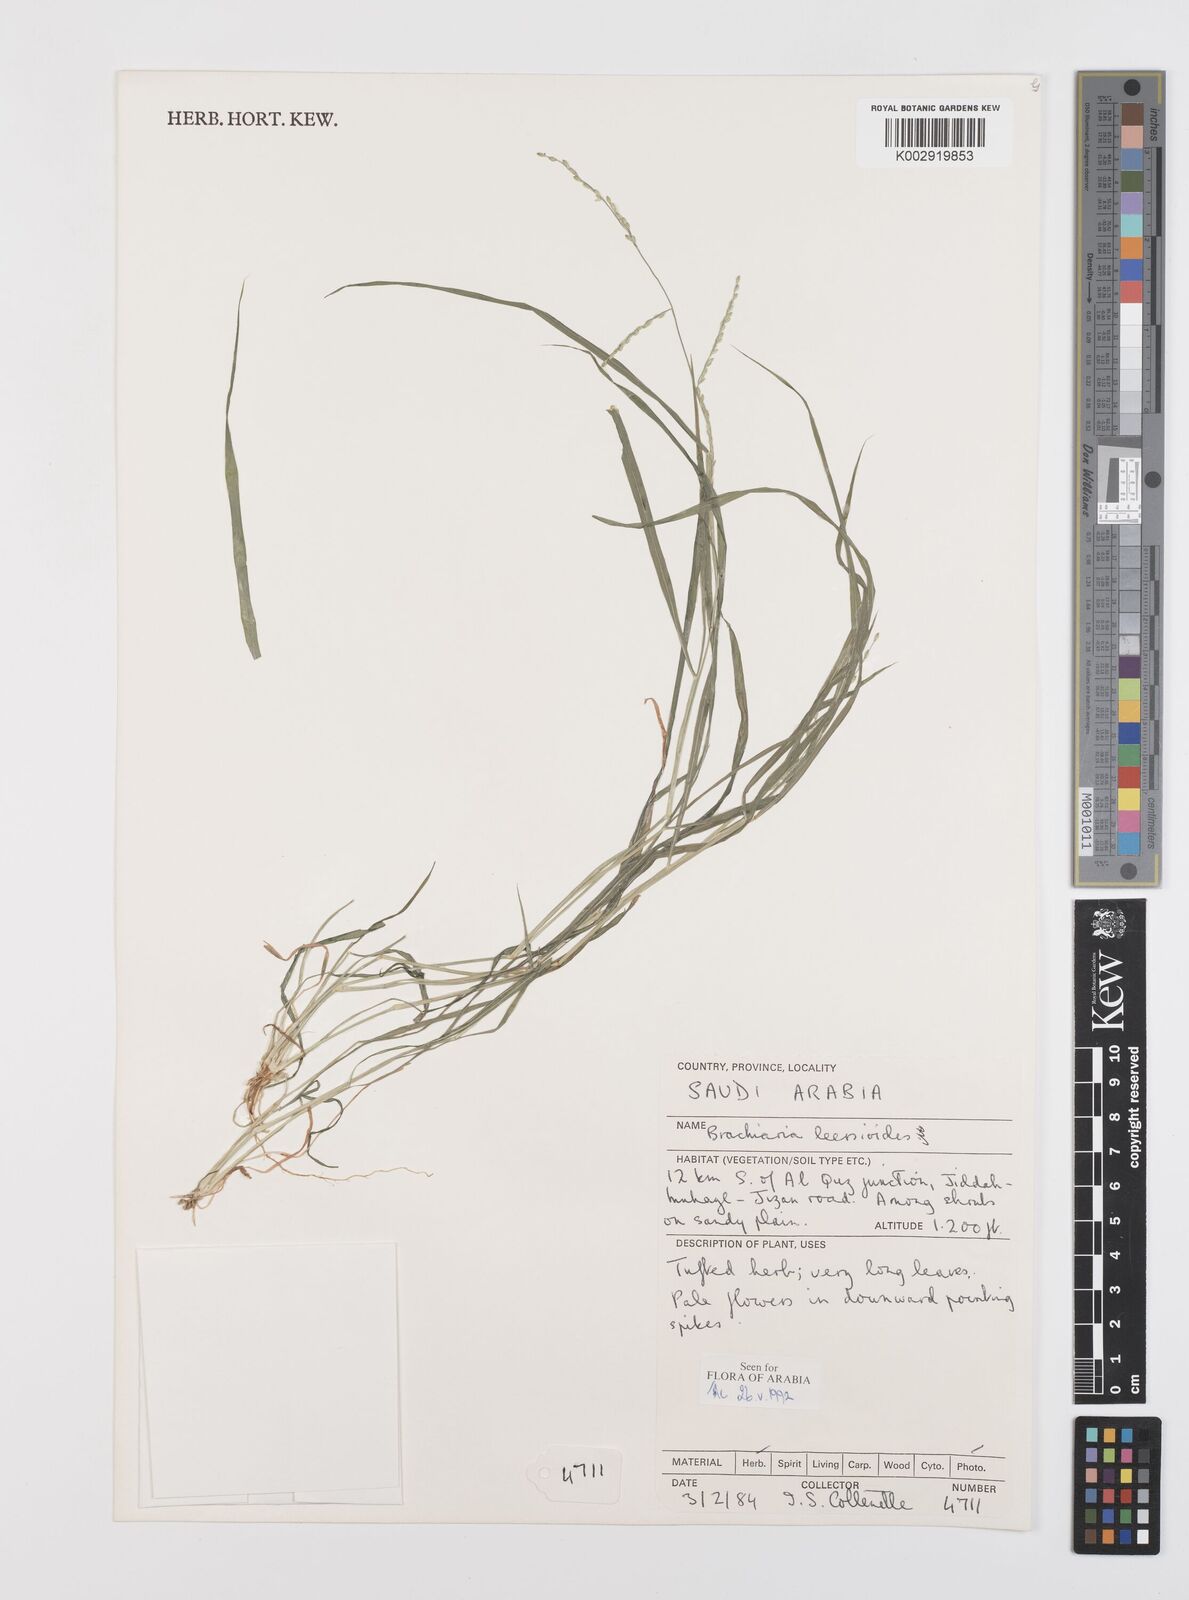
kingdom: Plantae
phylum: Tracheophyta
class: Liliopsida
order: Poales
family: Poaceae
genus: Urochloa
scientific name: Urochloa leersioides
